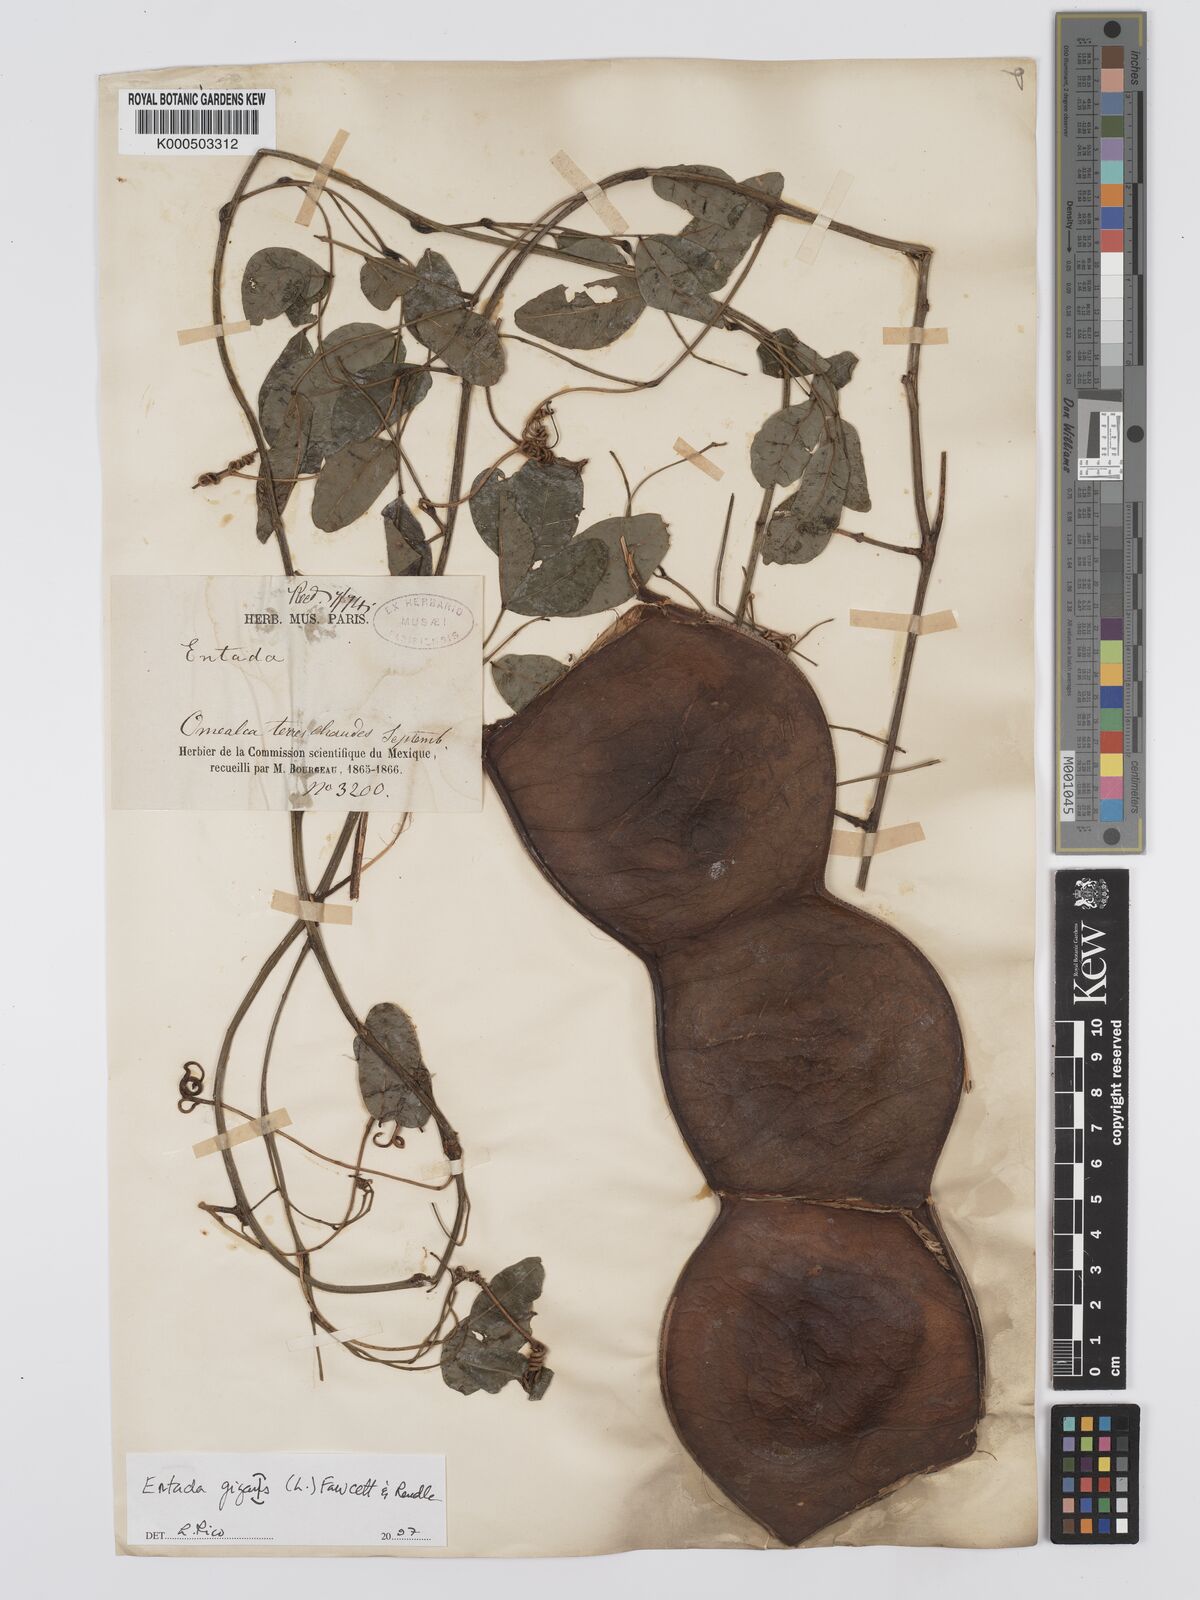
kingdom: Plantae
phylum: Tracheophyta
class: Magnoliopsida
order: Fabales
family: Fabaceae
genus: Entada
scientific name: Entada
